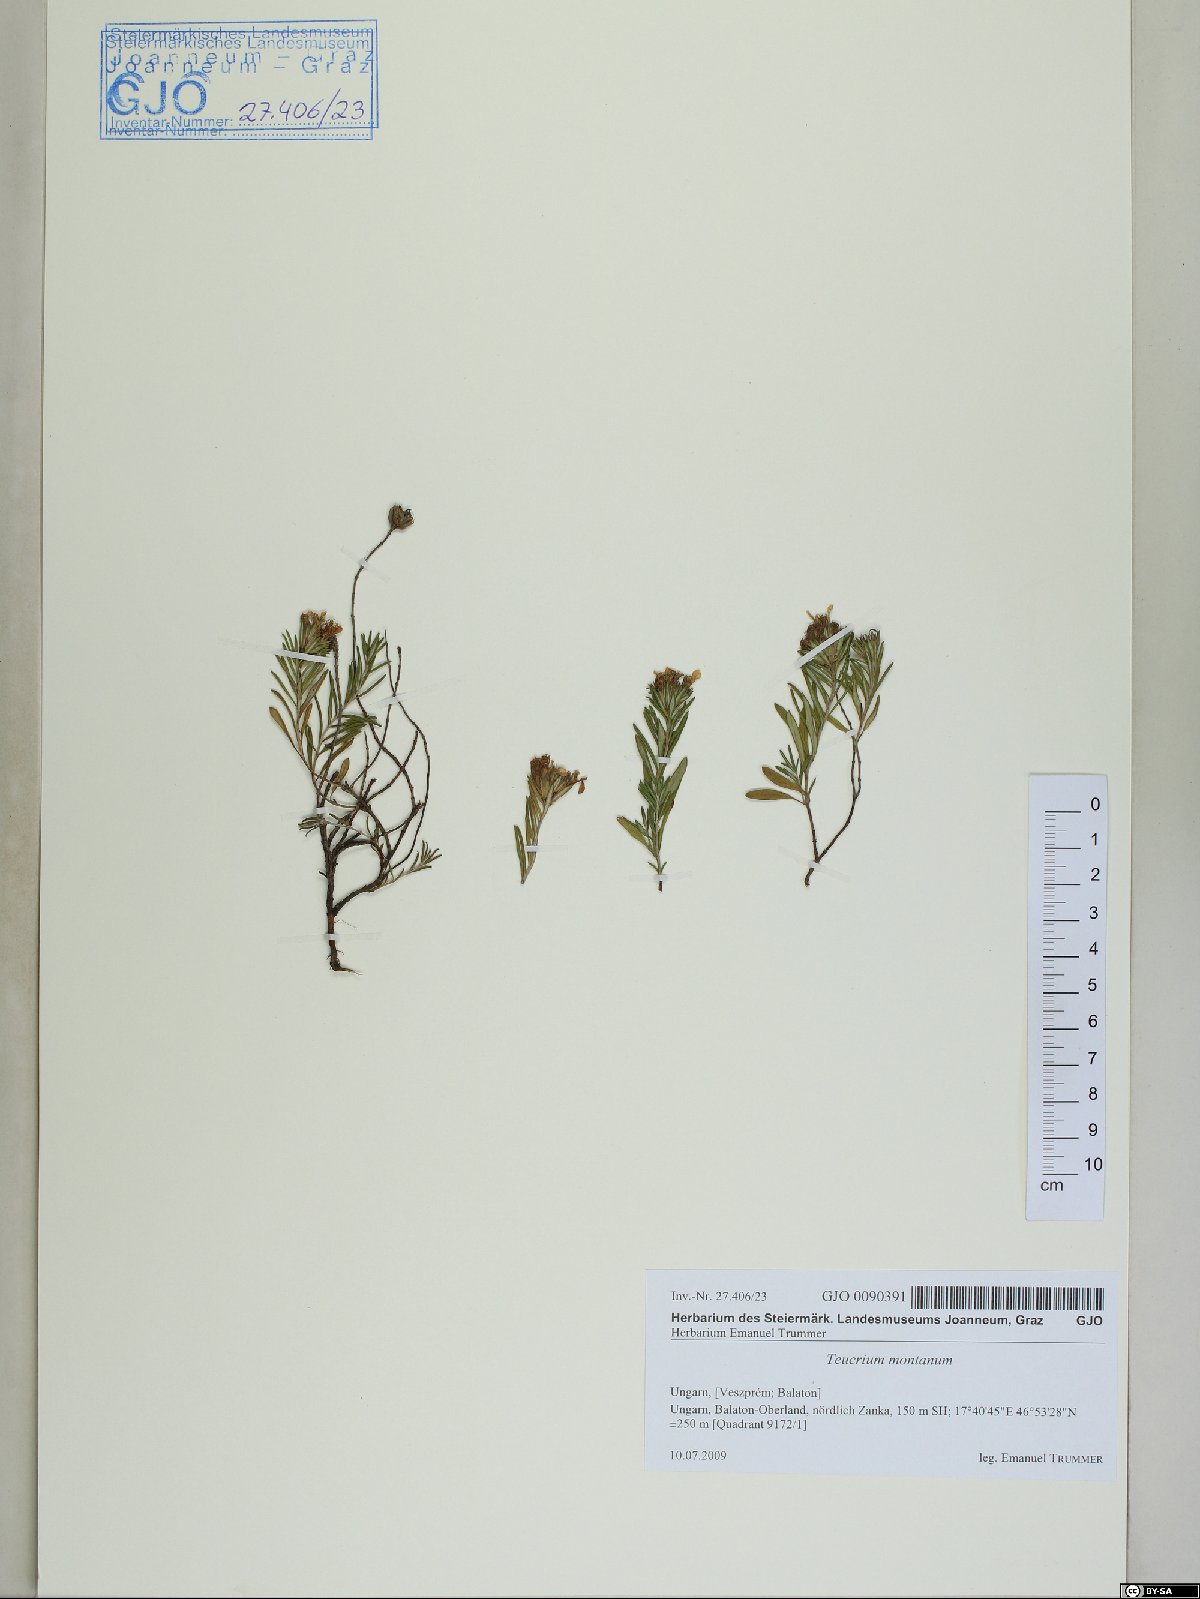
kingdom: Plantae
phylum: Tracheophyta
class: Magnoliopsida
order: Lamiales
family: Lamiaceae
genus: Teucrium
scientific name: Teucrium montanum
